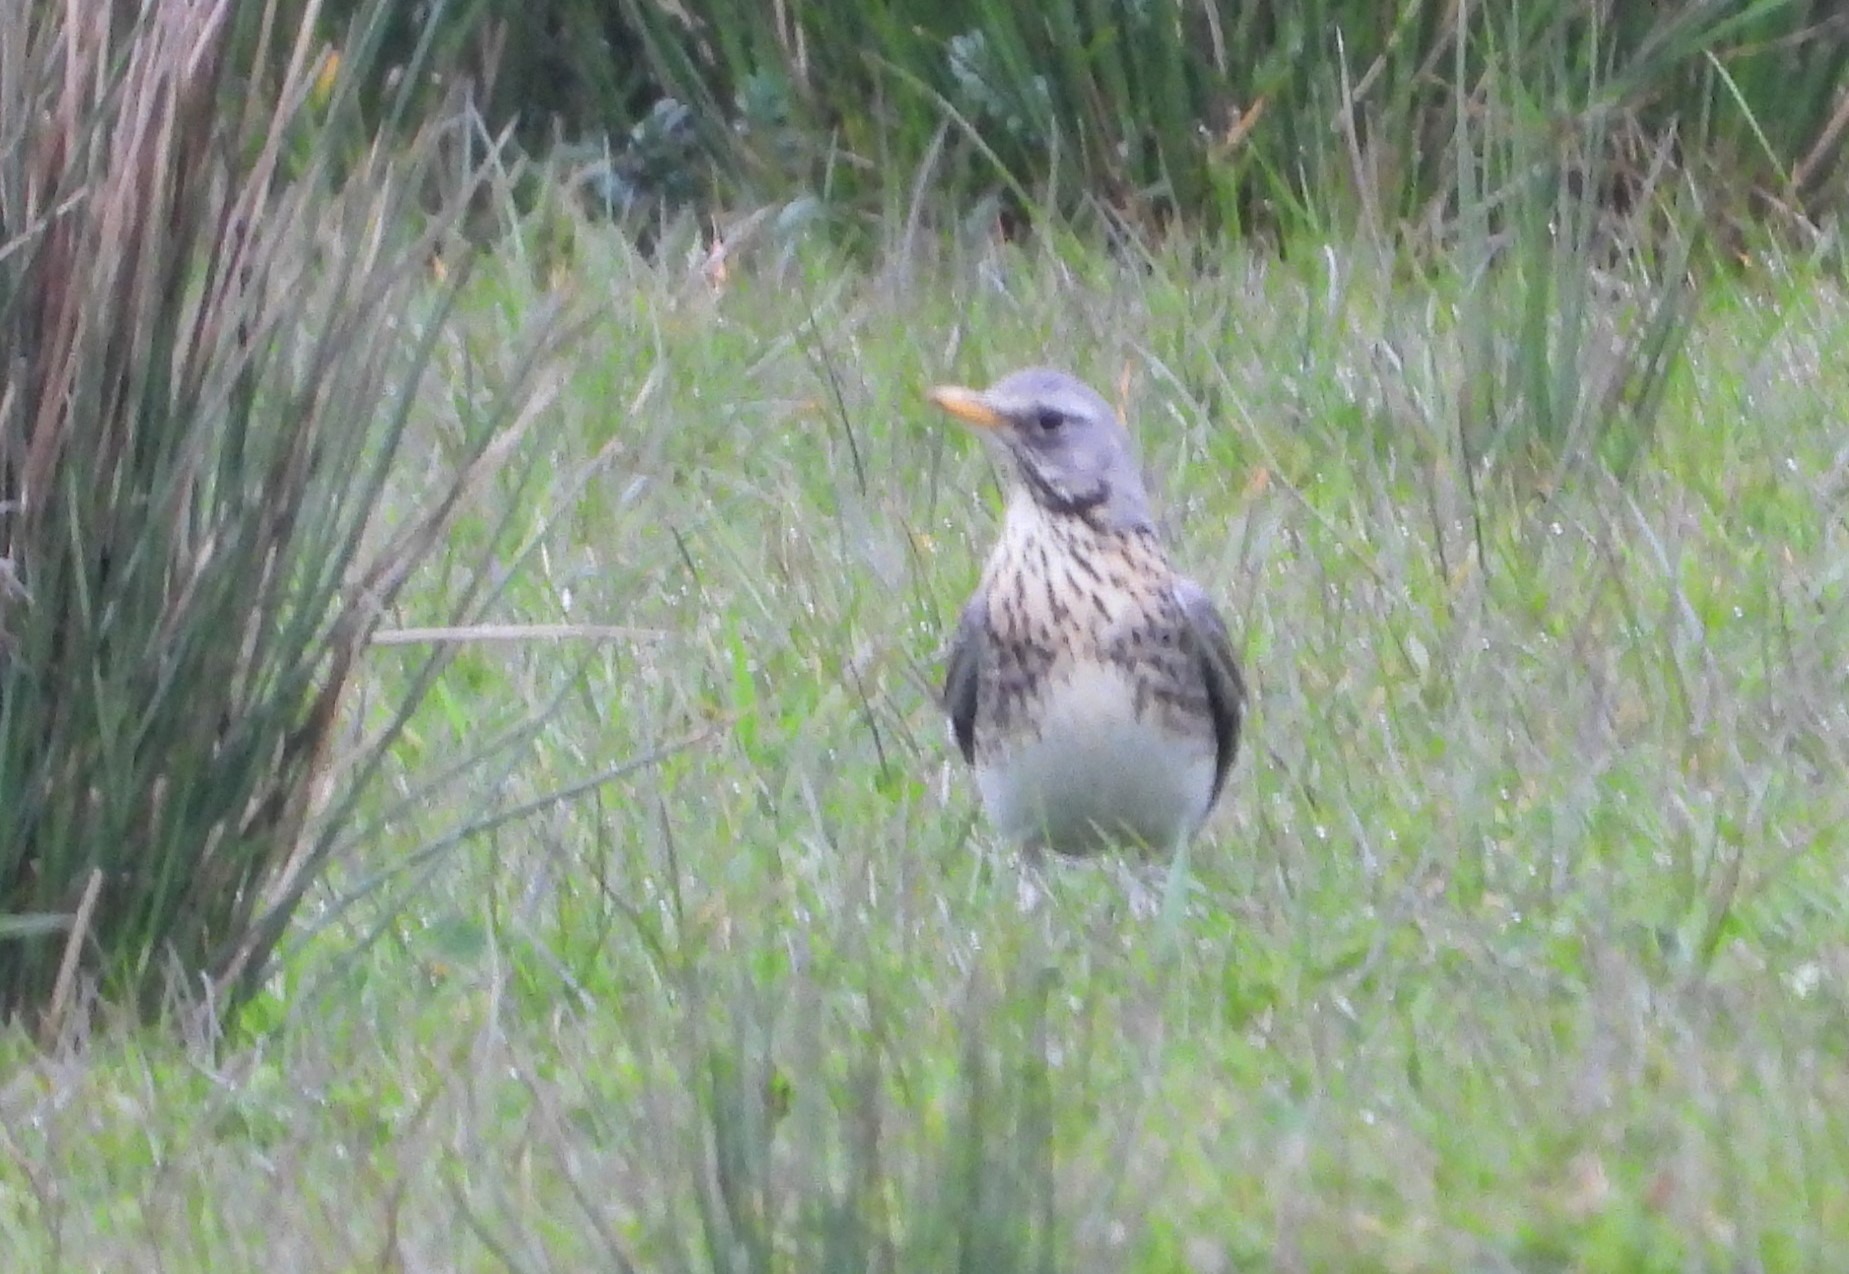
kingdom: Animalia
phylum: Chordata
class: Aves
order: Passeriformes
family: Turdidae
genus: Turdus
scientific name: Turdus pilaris
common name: Sjagger
